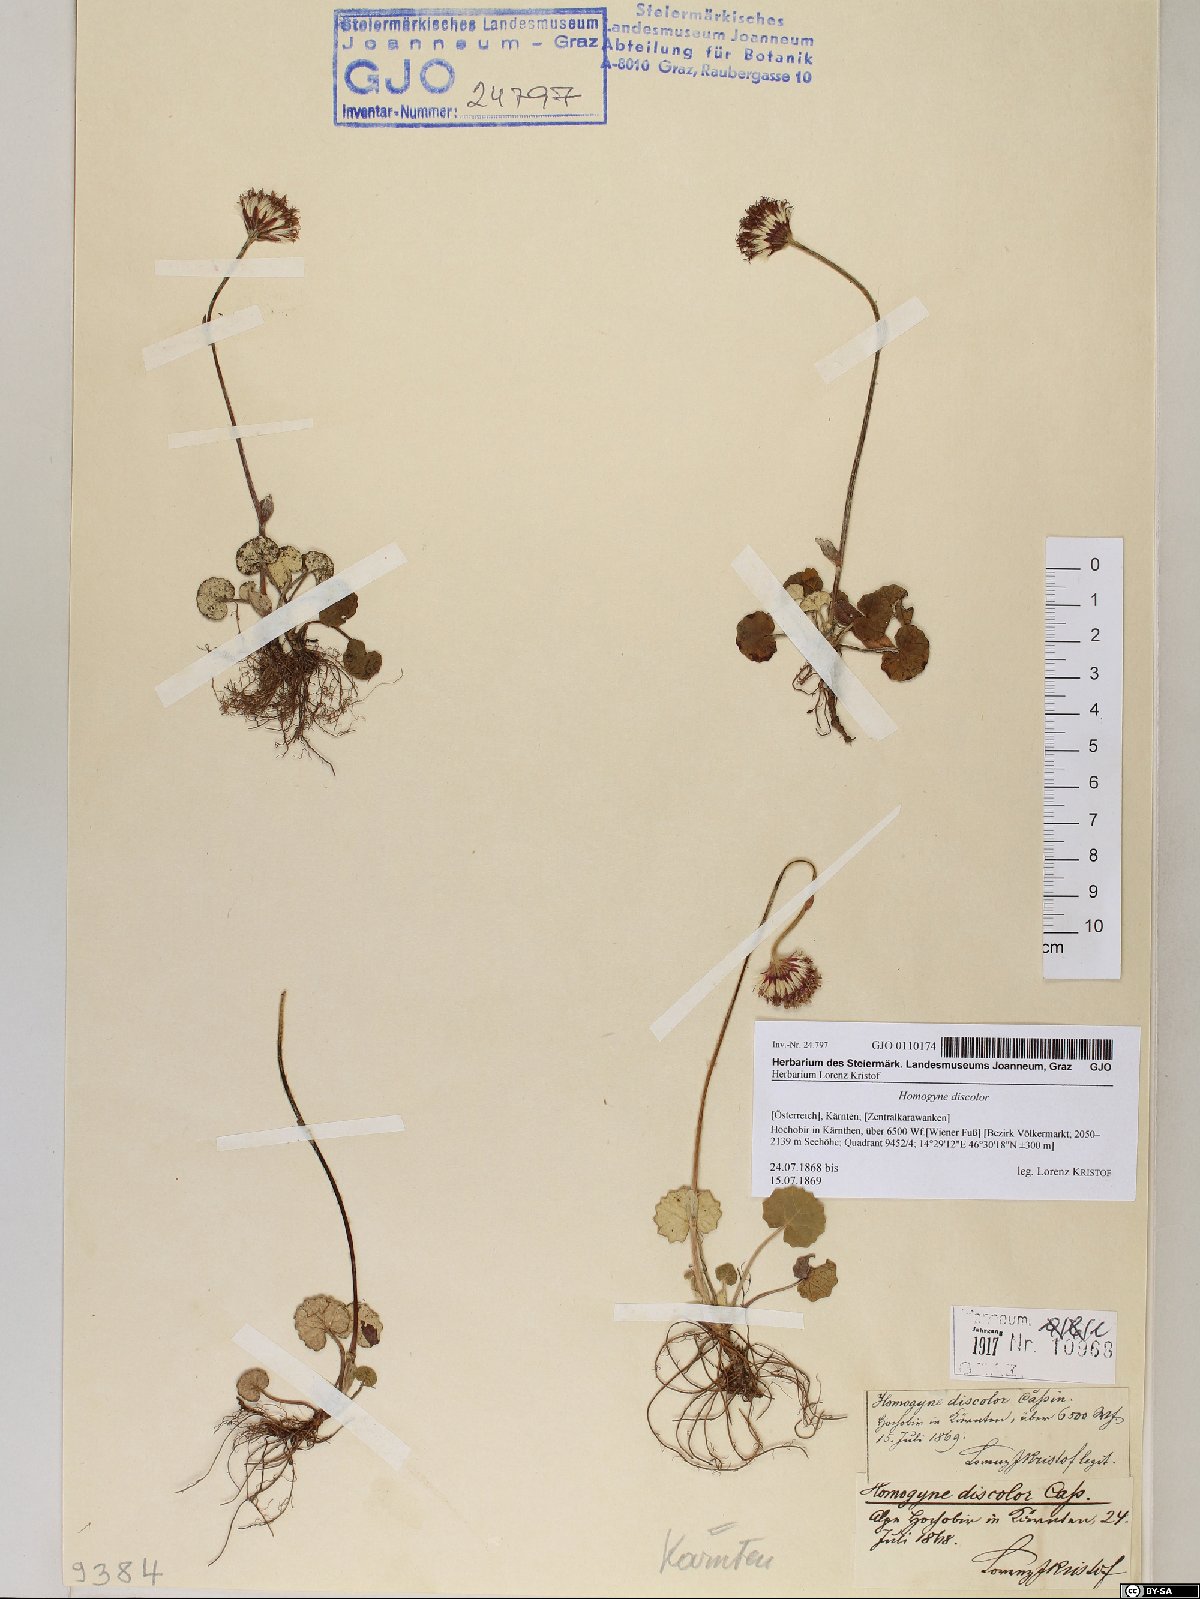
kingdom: Plantae
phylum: Tracheophyta
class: Magnoliopsida
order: Asterales
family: Asteraceae
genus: Homogyne
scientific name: Homogyne discolor
